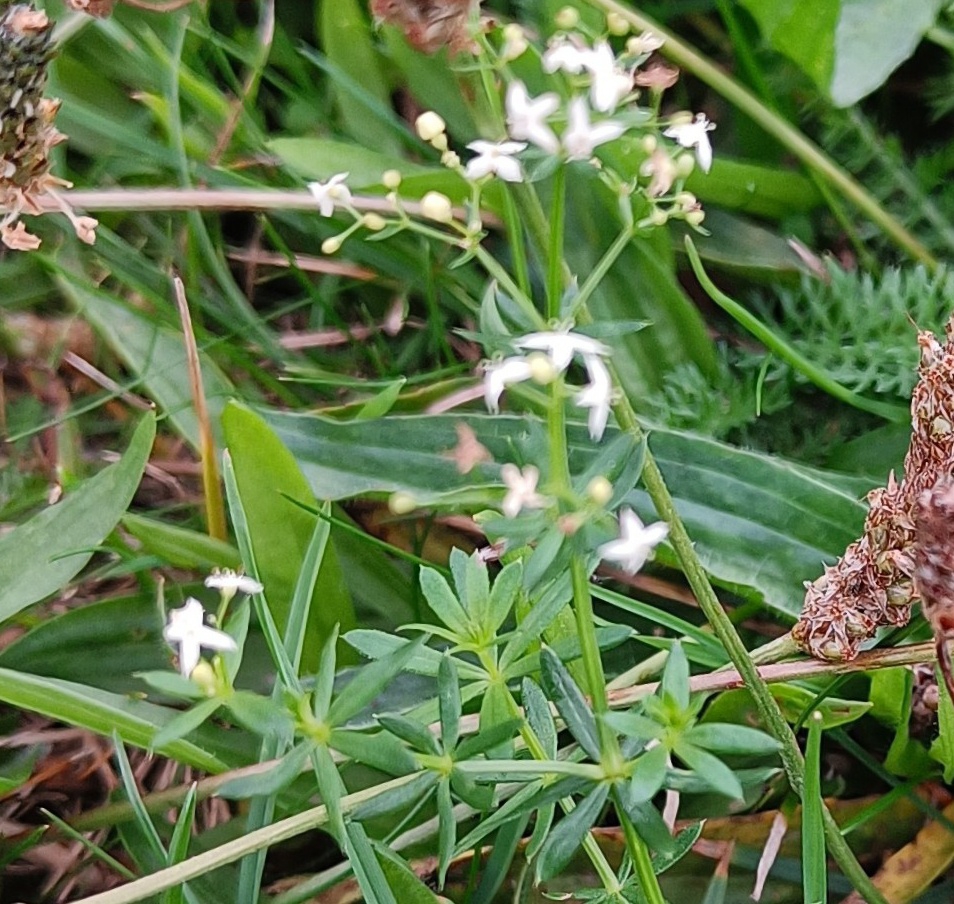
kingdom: Plantae
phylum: Tracheophyta
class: Magnoliopsida
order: Gentianales
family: Rubiaceae
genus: Galium
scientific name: Galium mollugo
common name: Hvid snerre
